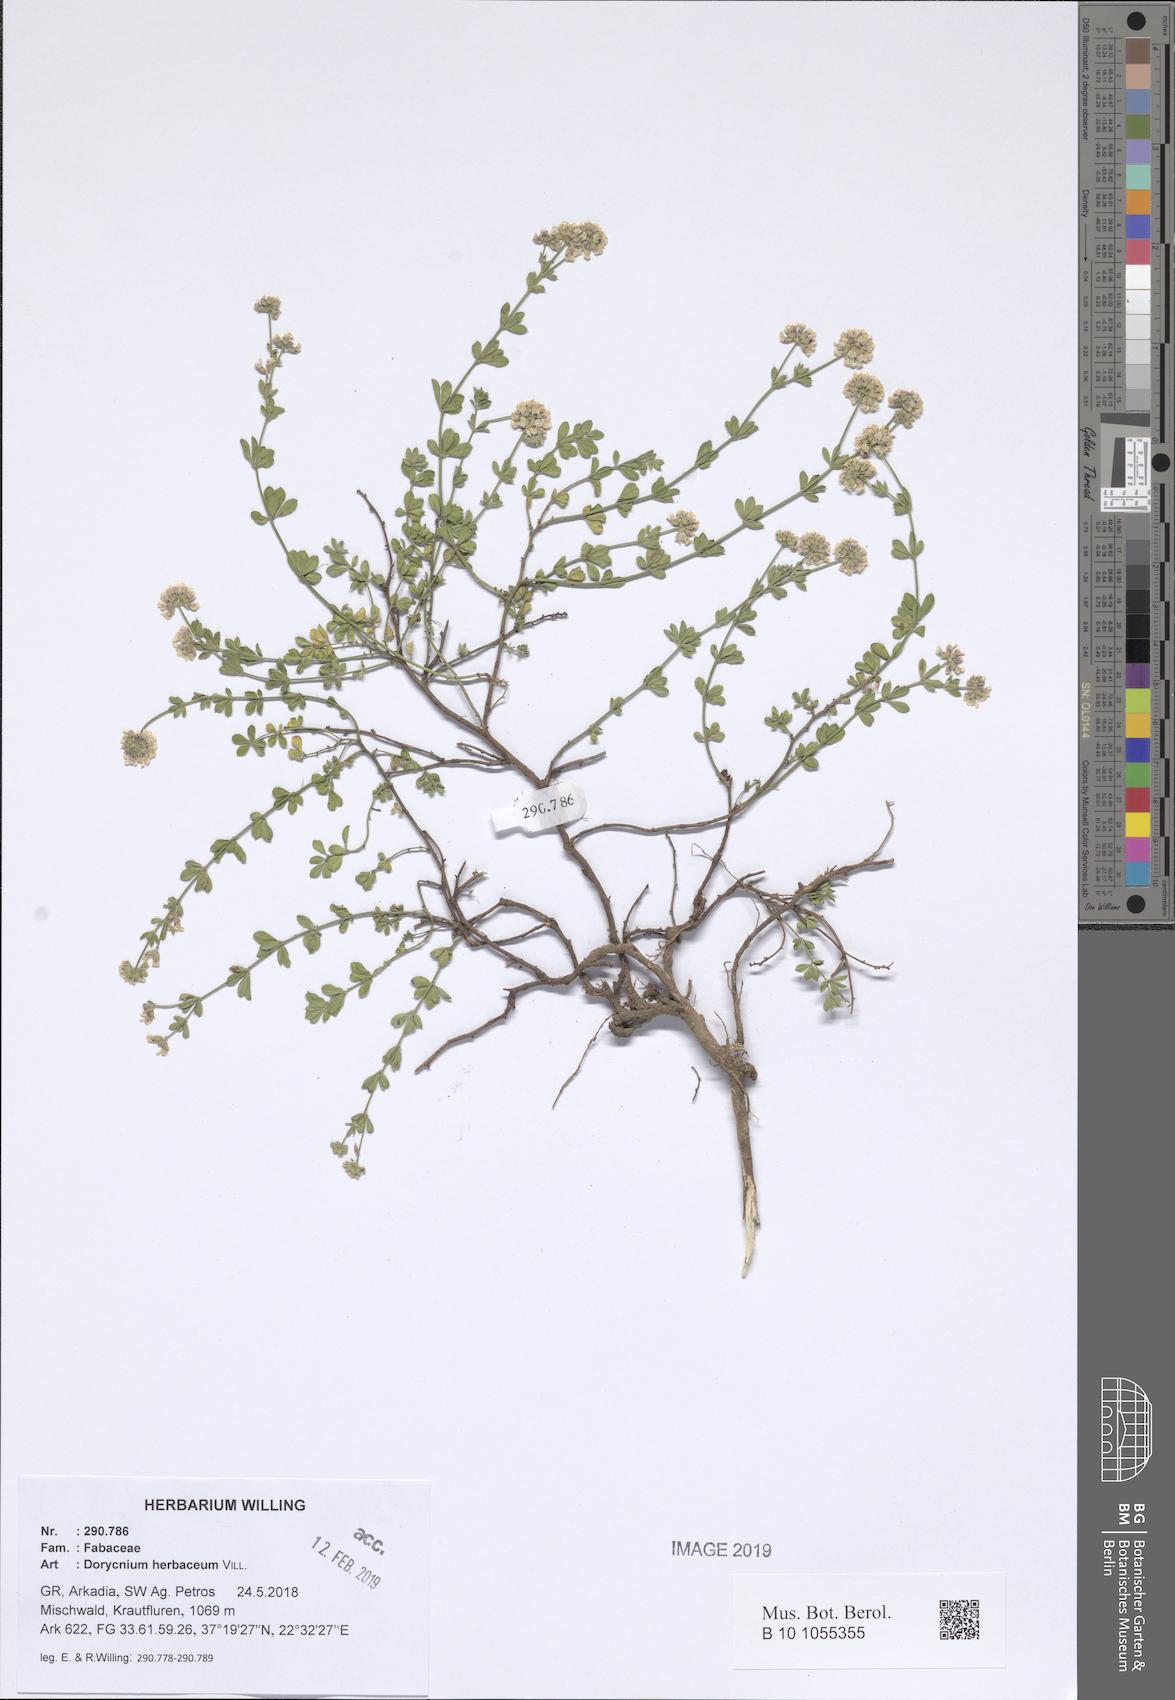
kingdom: Plantae
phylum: Tracheophyta
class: Magnoliopsida
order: Fabales
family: Fabaceae
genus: Lotus
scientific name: Lotus herbaceus
